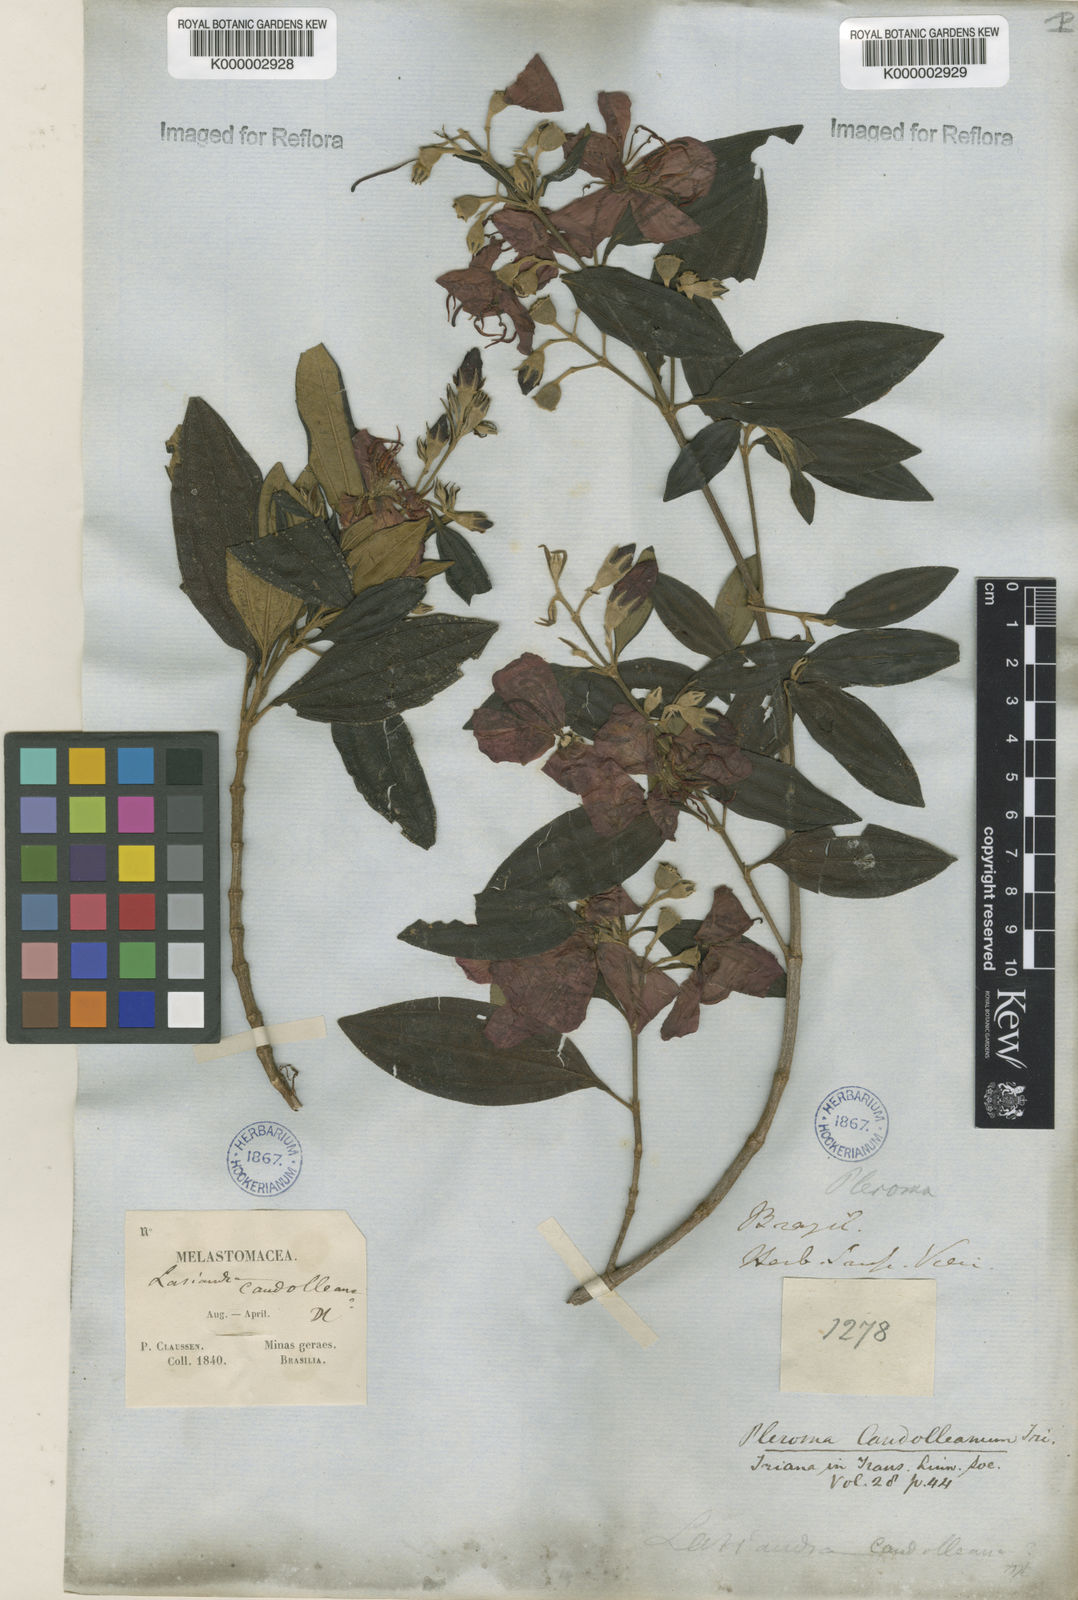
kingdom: Plantae
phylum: Tracheophyta
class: Magnoliopsida
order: Myrtales
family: Melastomataceae
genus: Pleroma
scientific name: Pleroma candolleanum
